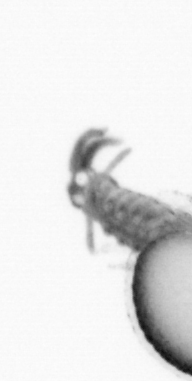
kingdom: Animalia
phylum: Annelida
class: Polychaeta
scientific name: Polychaeta
